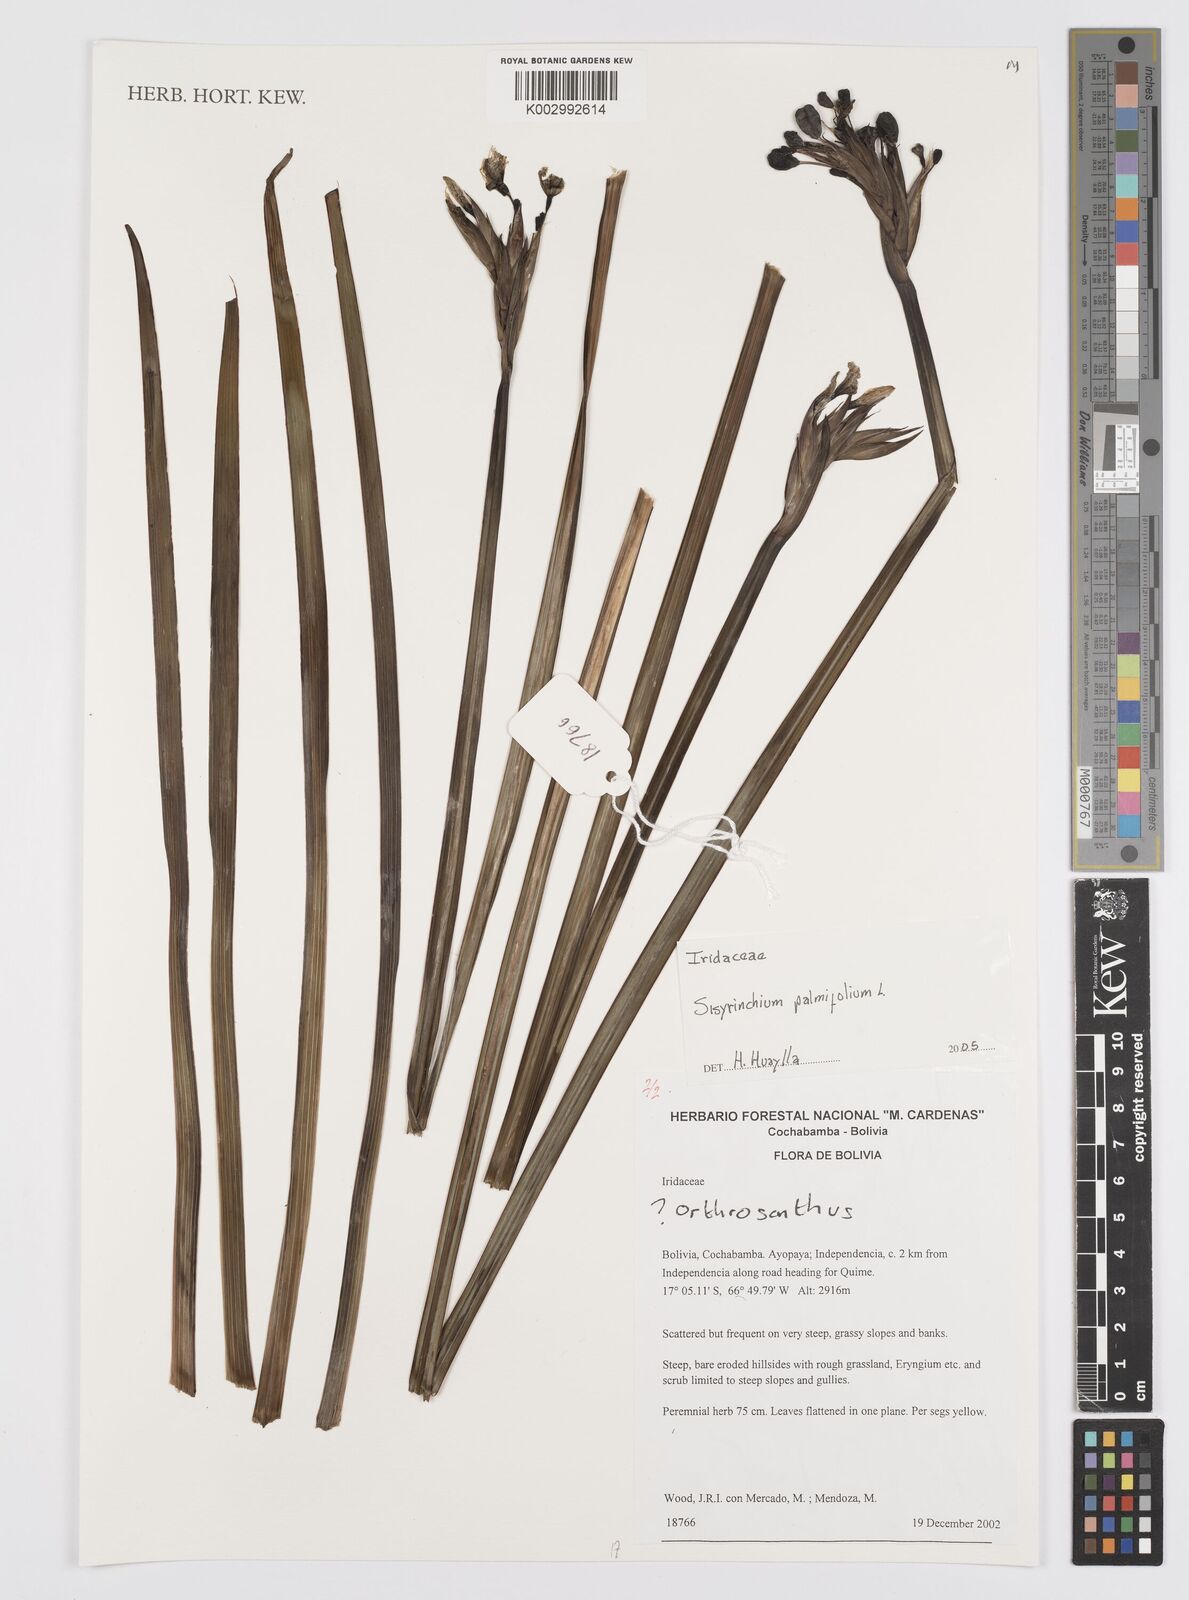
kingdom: Plantae
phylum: Tracheophyta
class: Liliopsida
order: Asparagales
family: Iridaceae
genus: Sisyrinchium
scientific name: Sisyrinchium palmifolium
